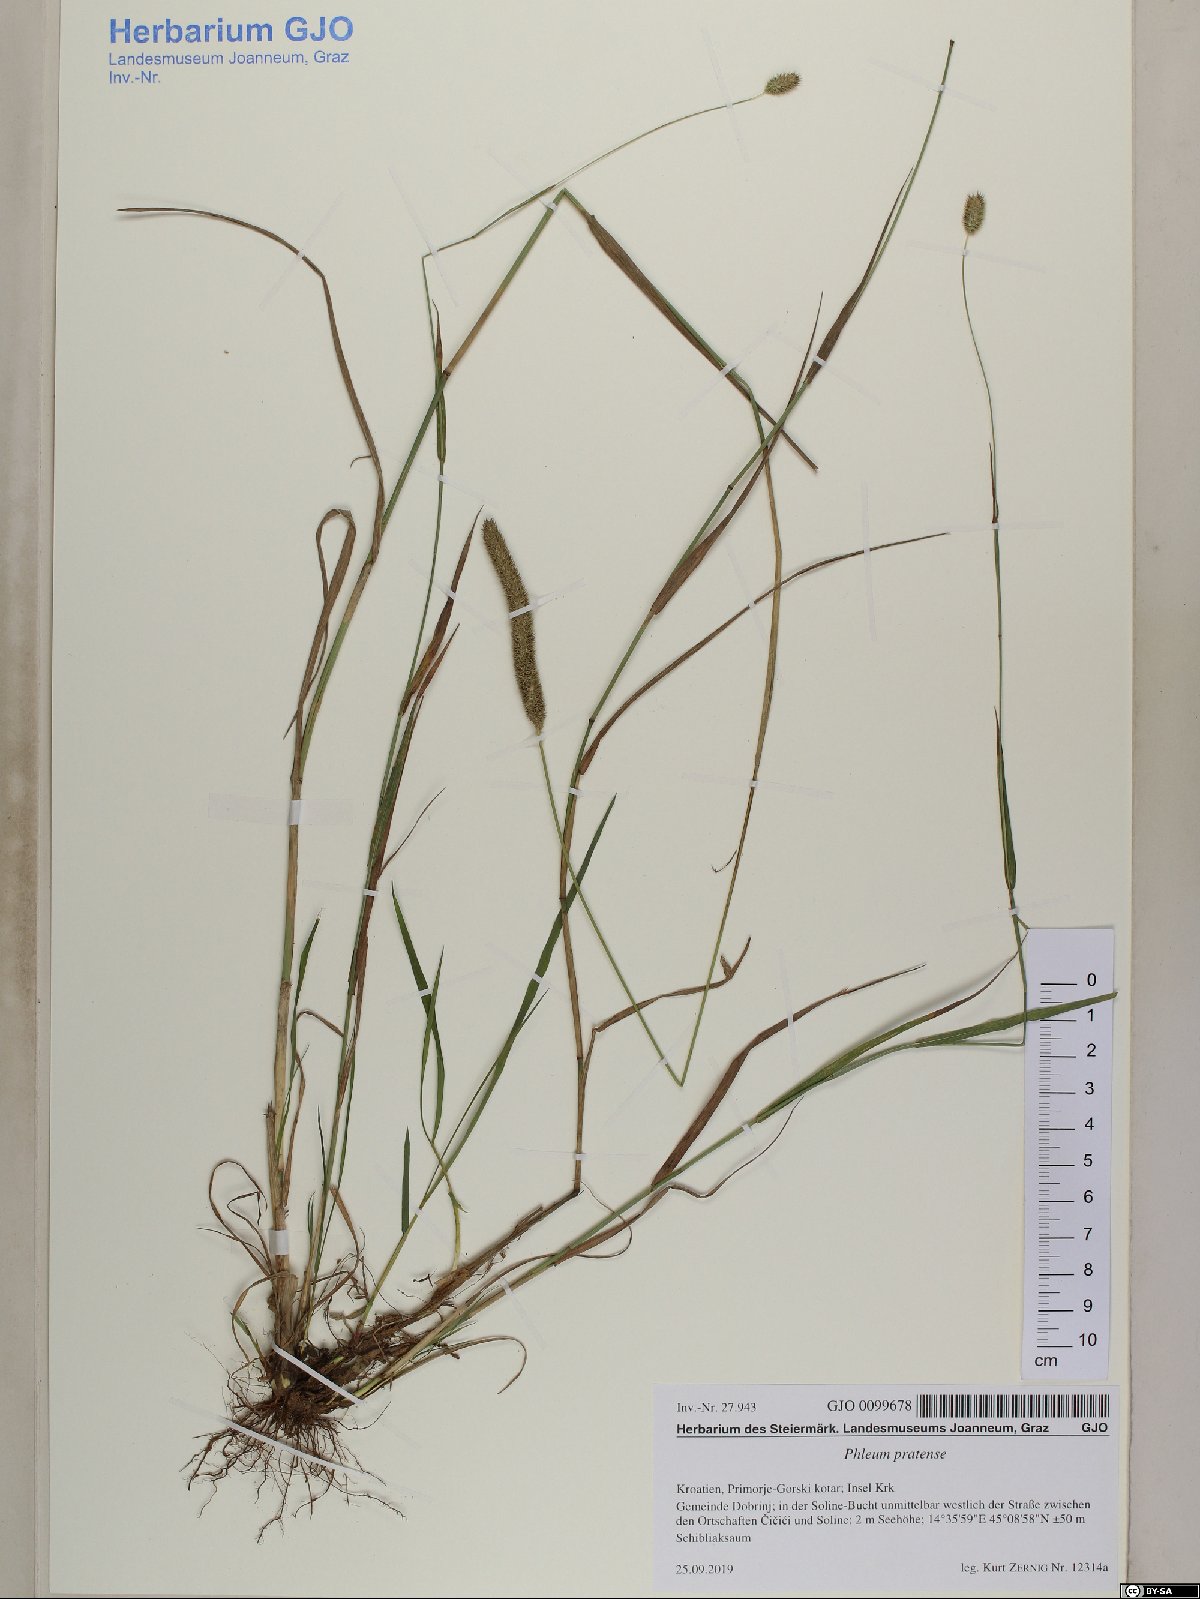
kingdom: Plantae
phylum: Tracheophyta
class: Liliopsida
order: Poales
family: Poaceae
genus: Phleum
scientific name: Phleum pratense
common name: Timothy grass
